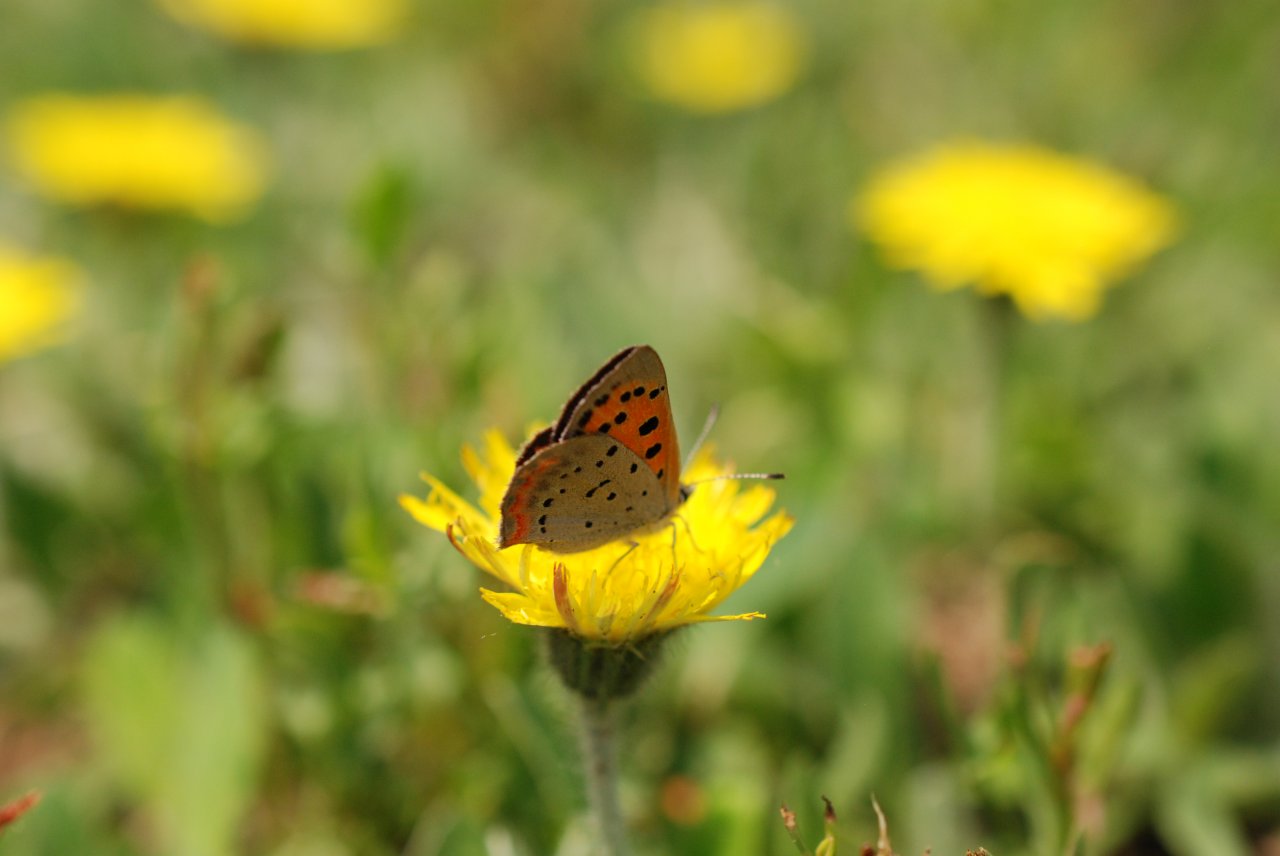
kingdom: Animalia
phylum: Arthropoda
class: Insecta
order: Lepidoptera
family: Lycaenidae
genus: Lycaena
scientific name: Lycaena phlaeas
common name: American Copper
